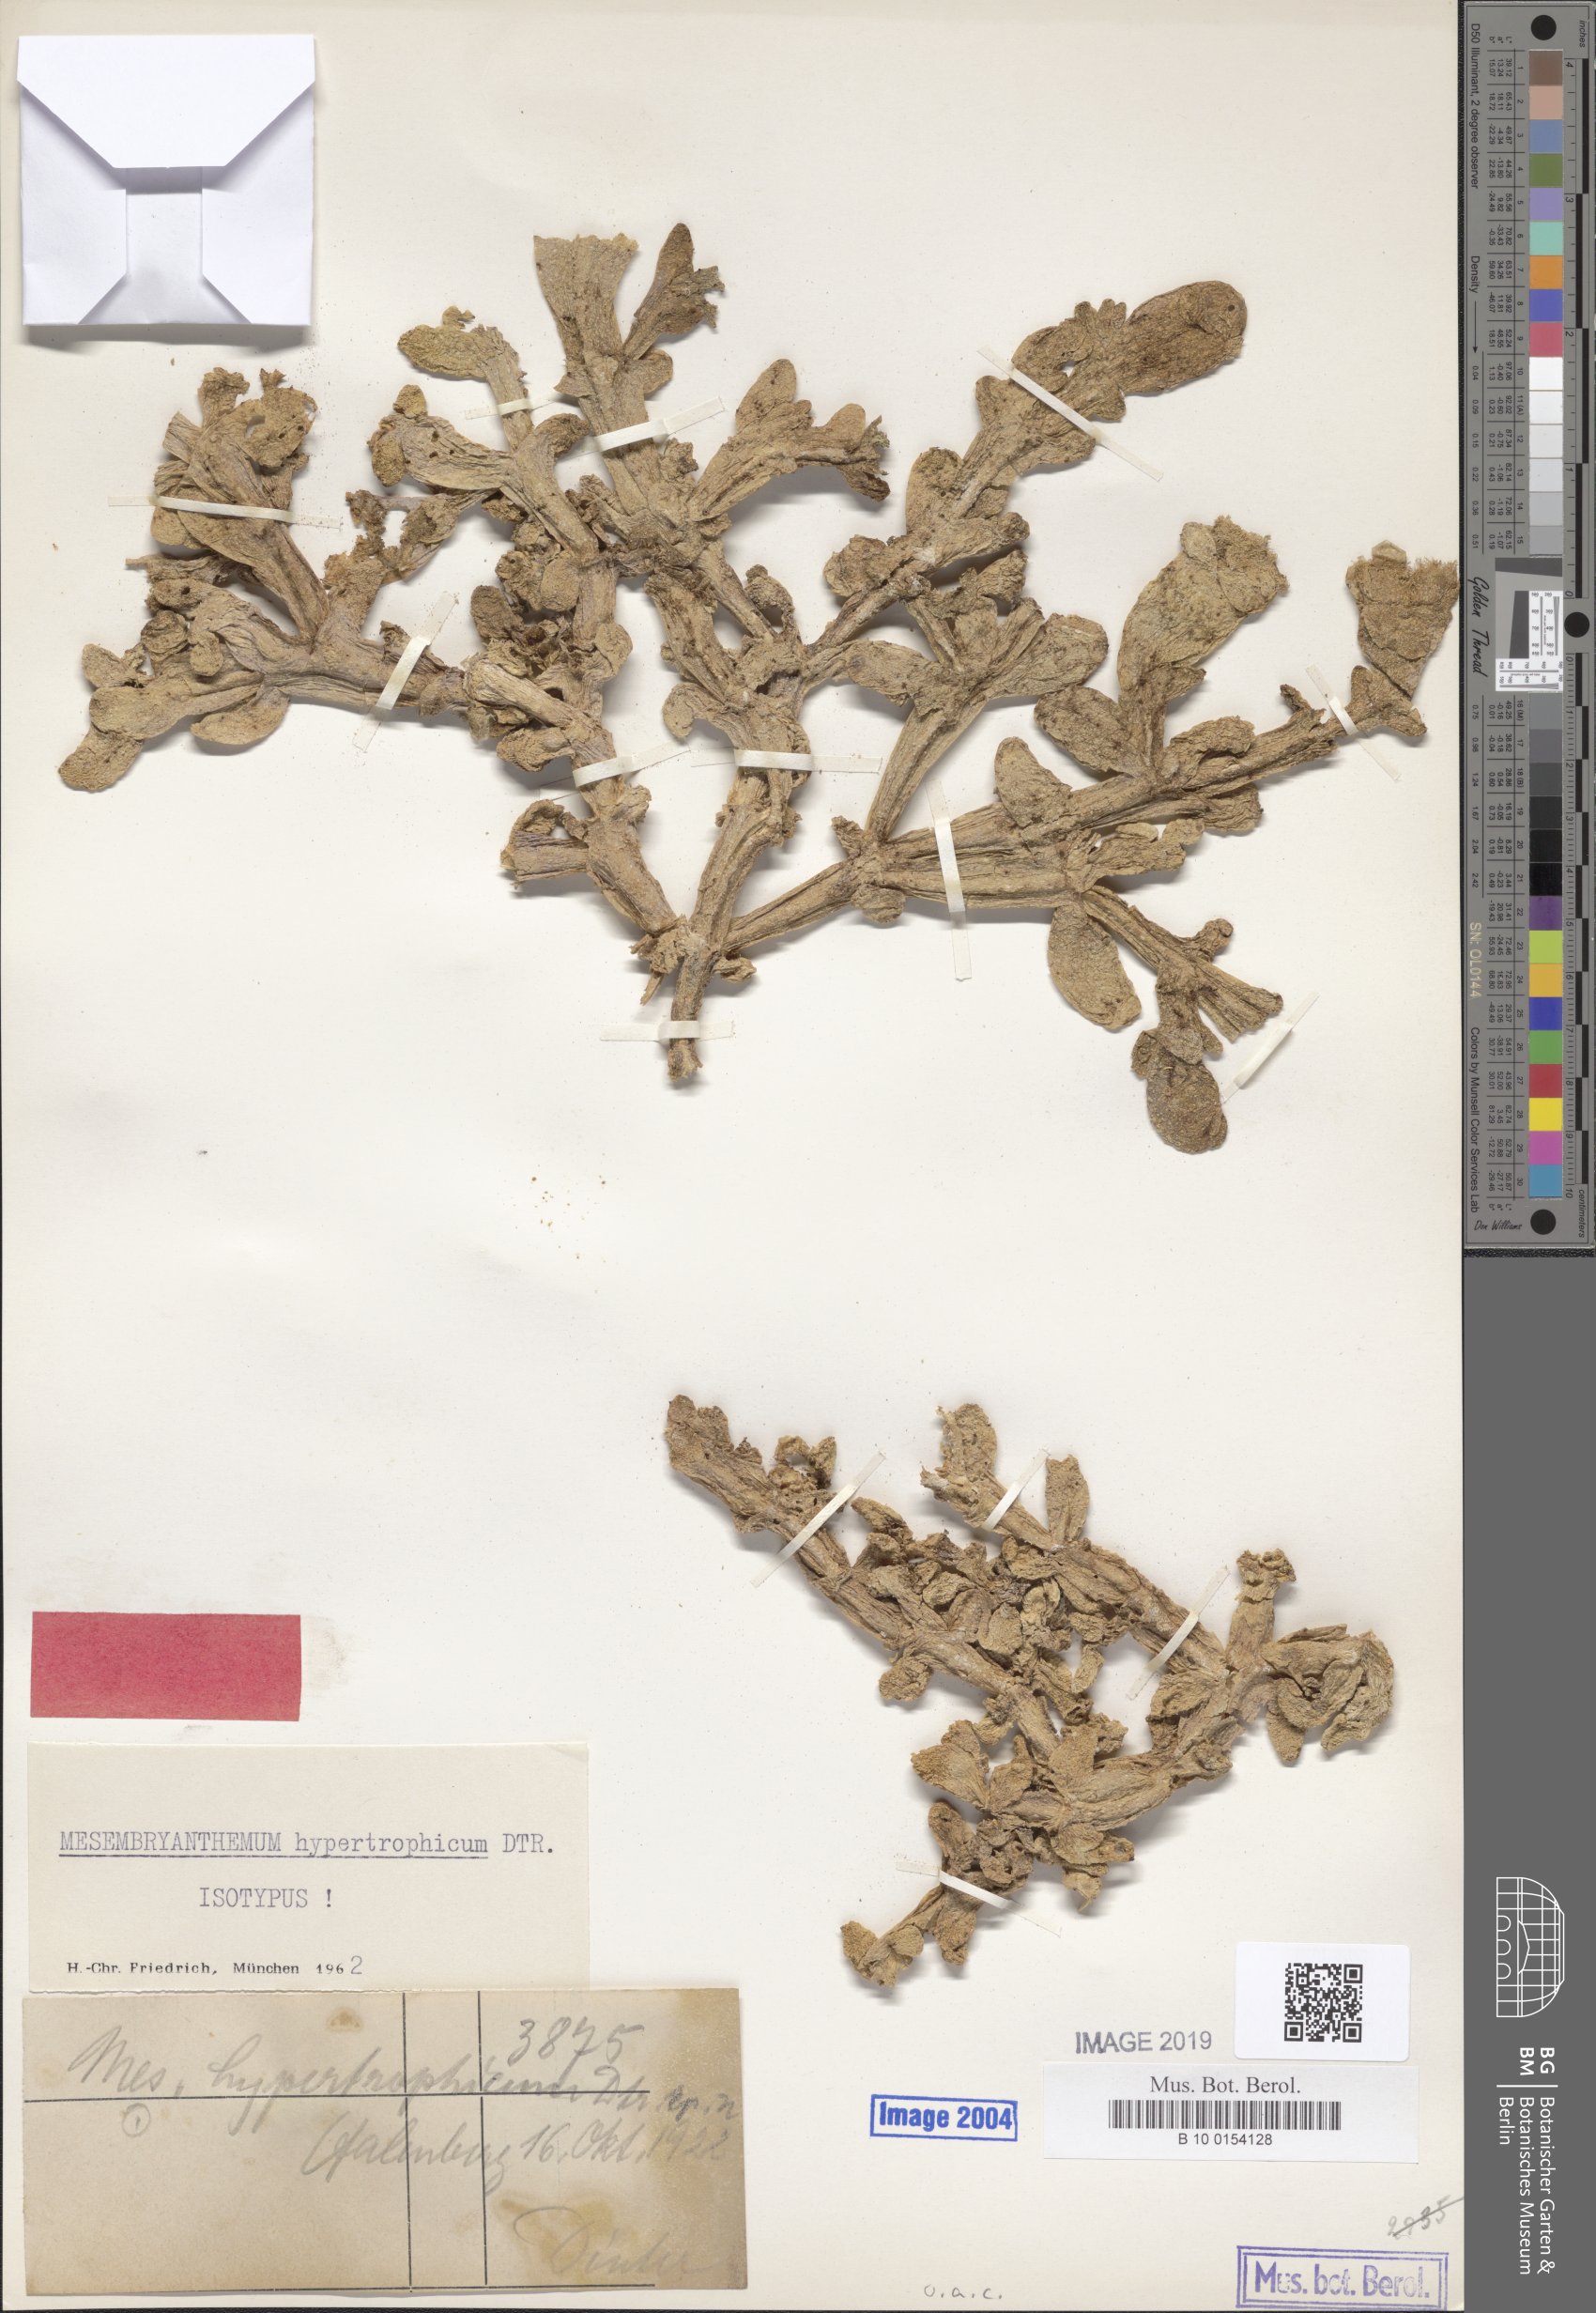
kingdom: Plantae
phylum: Tracheophyta
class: Magnoliopsida
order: Caryophyllales
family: Aizoaceae
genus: Mesembryanthemum
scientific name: Mesembryanthemum hypertrophicum
